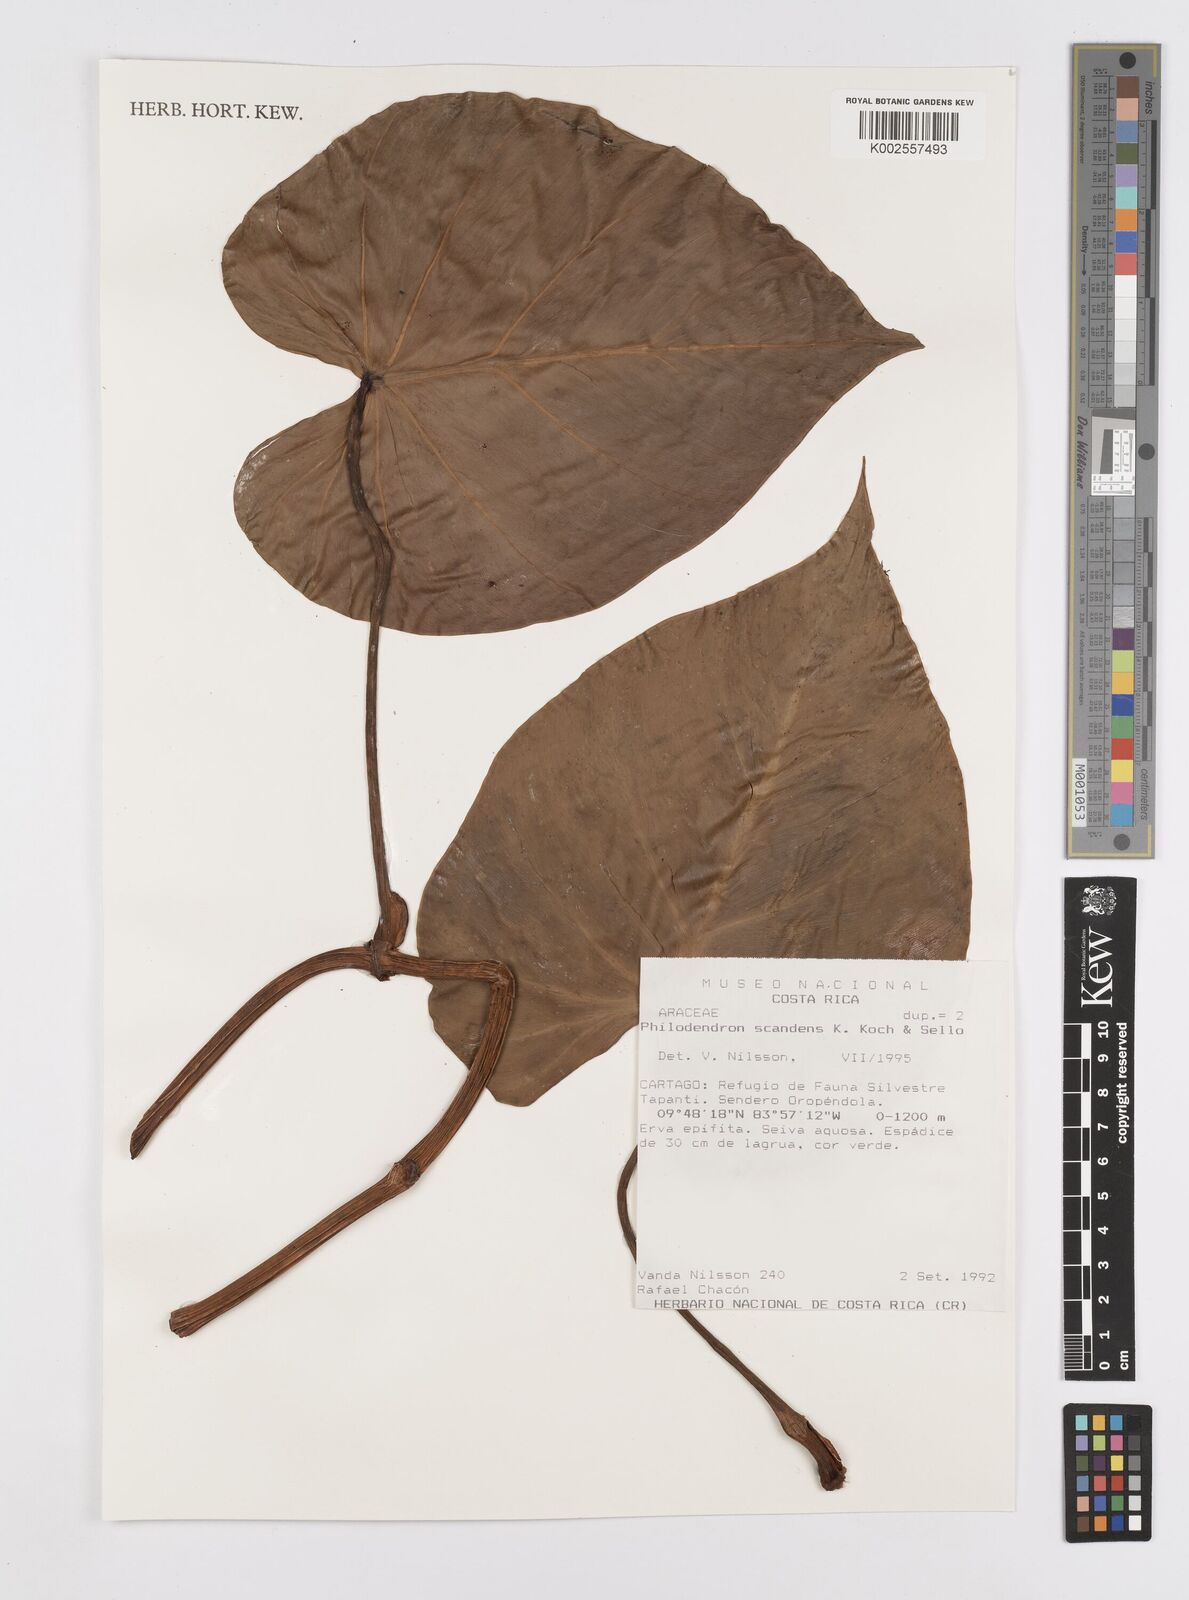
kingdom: Plantae
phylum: Tracheophyta
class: Liliopsida
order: Alismatales
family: Araceae
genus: Philodendron
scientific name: Philodendron hederaceum
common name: Vilevine
